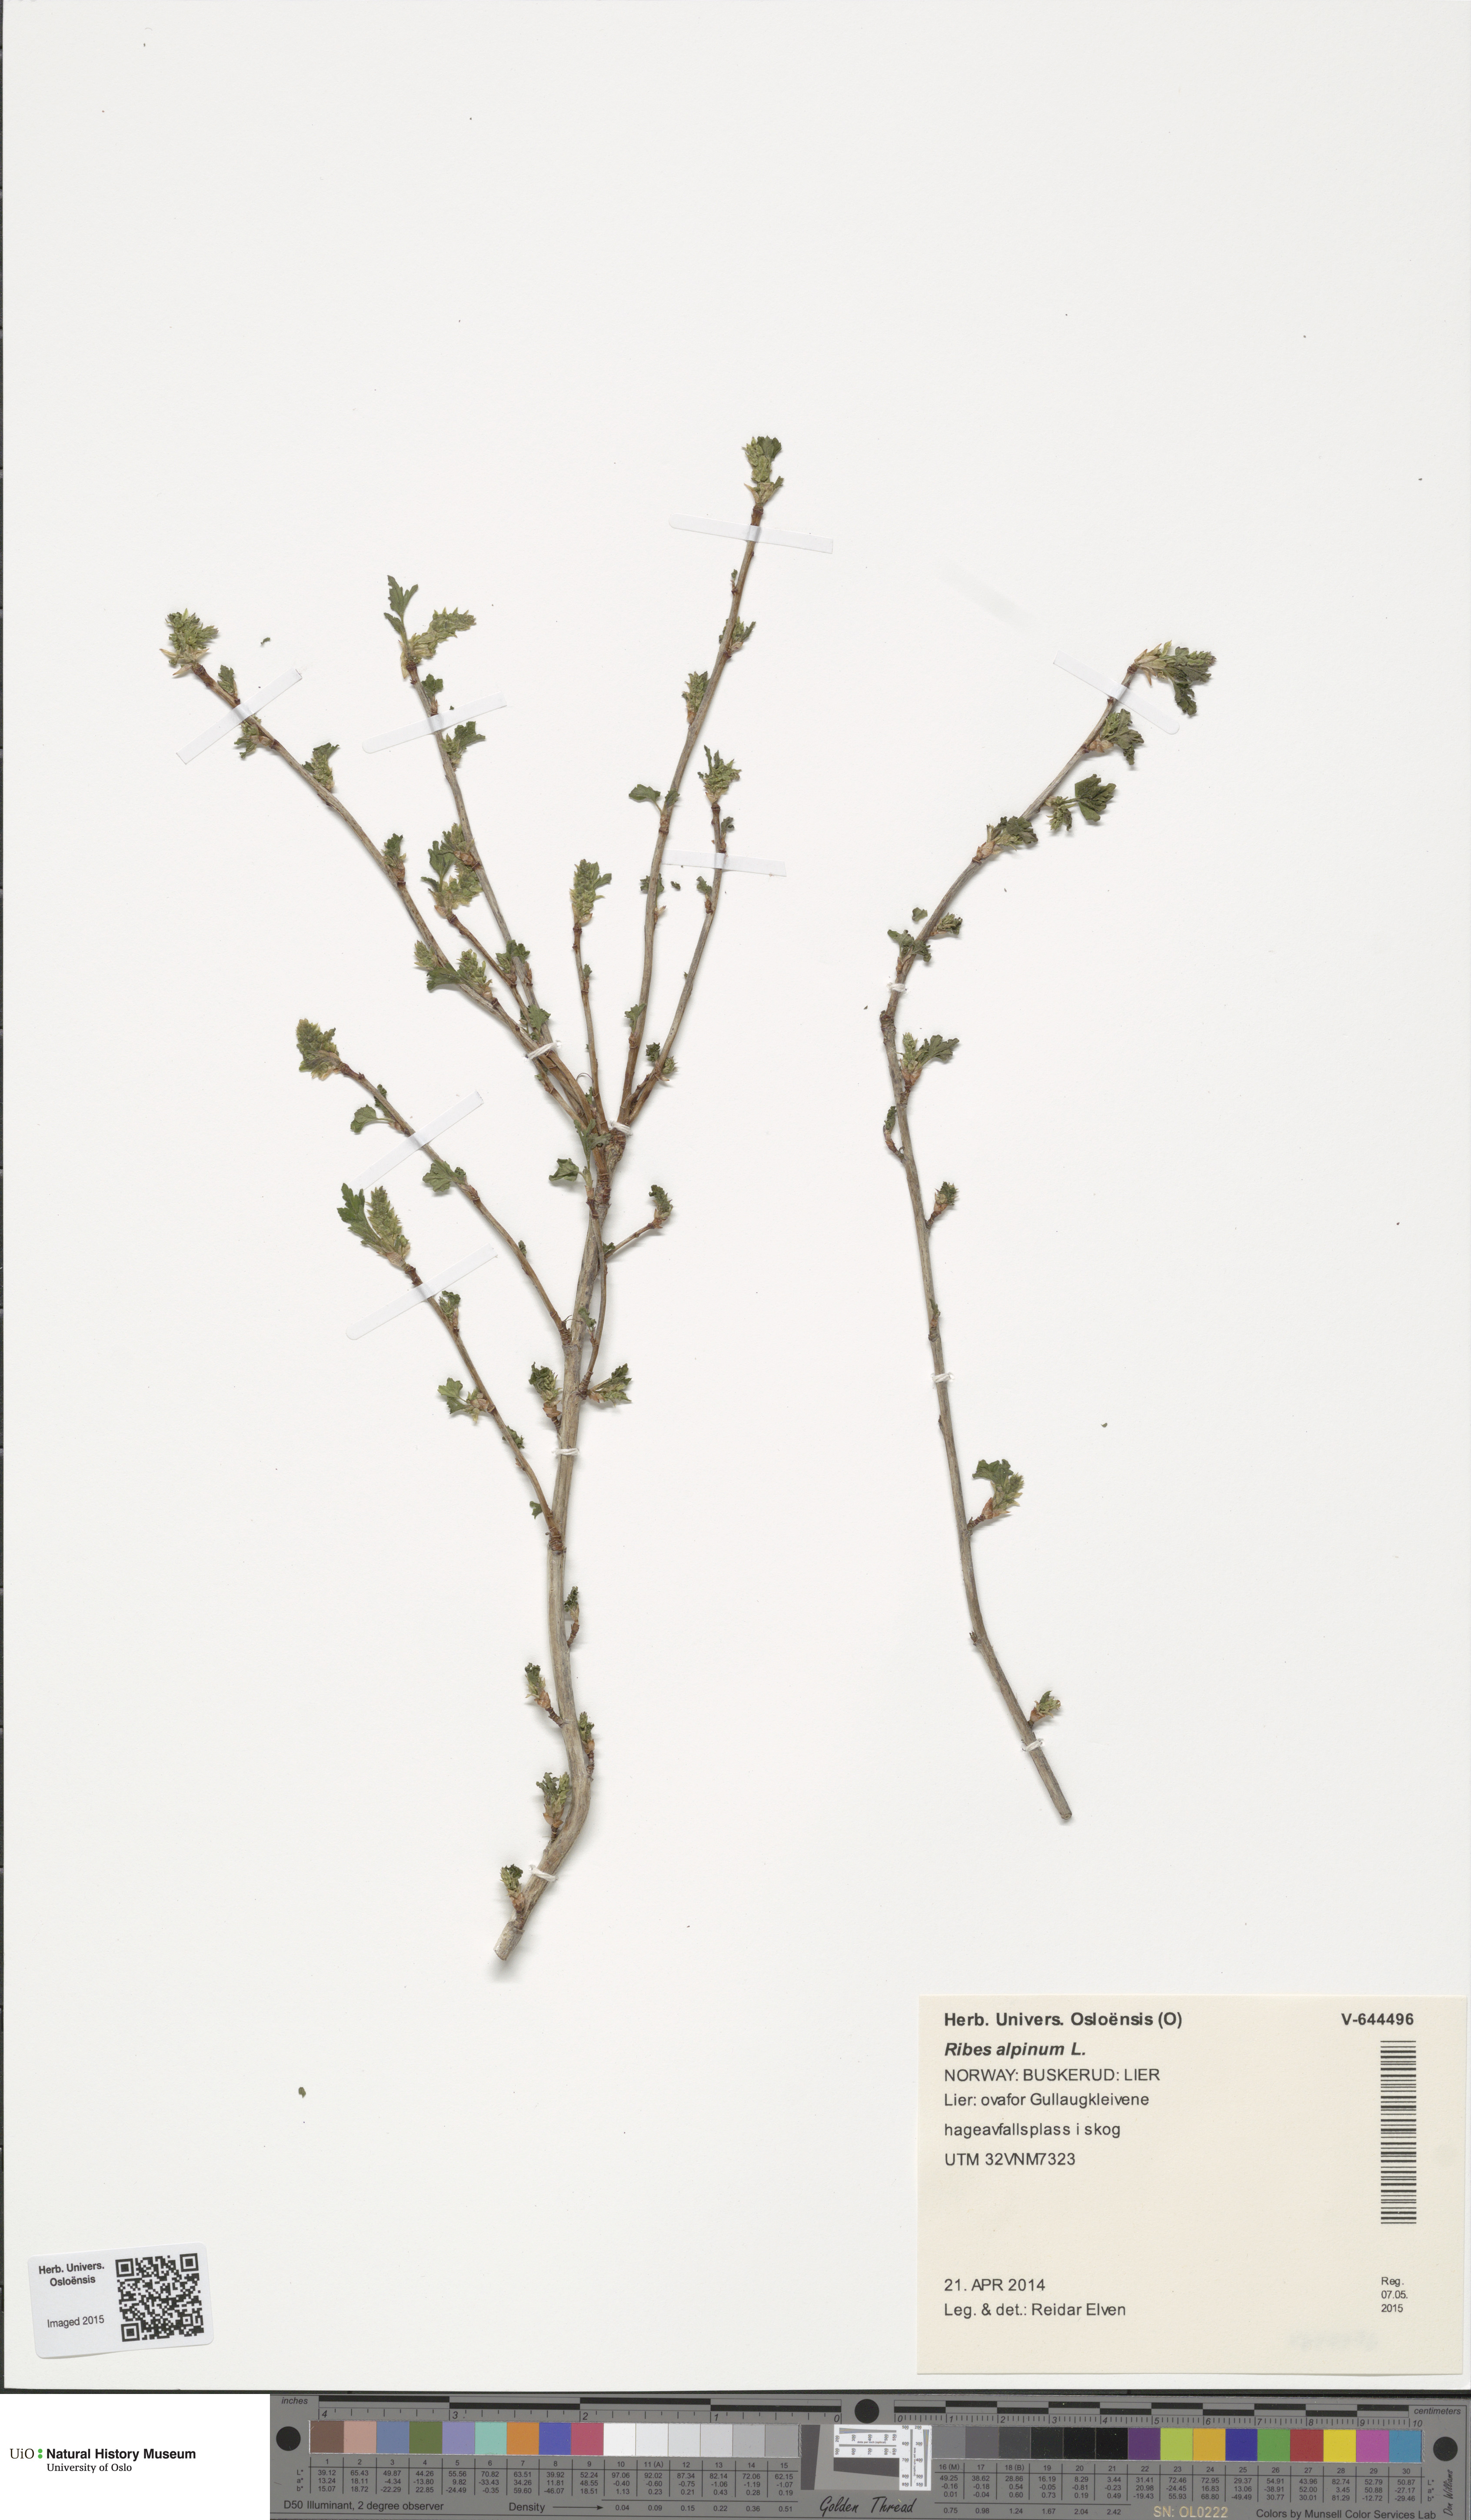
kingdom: Plantae
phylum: Tracheophyta
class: Magnoliopsida
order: Saxifragales
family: Grossulariaceae
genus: Ribes
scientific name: Ribes alpinum
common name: Alpine currant
